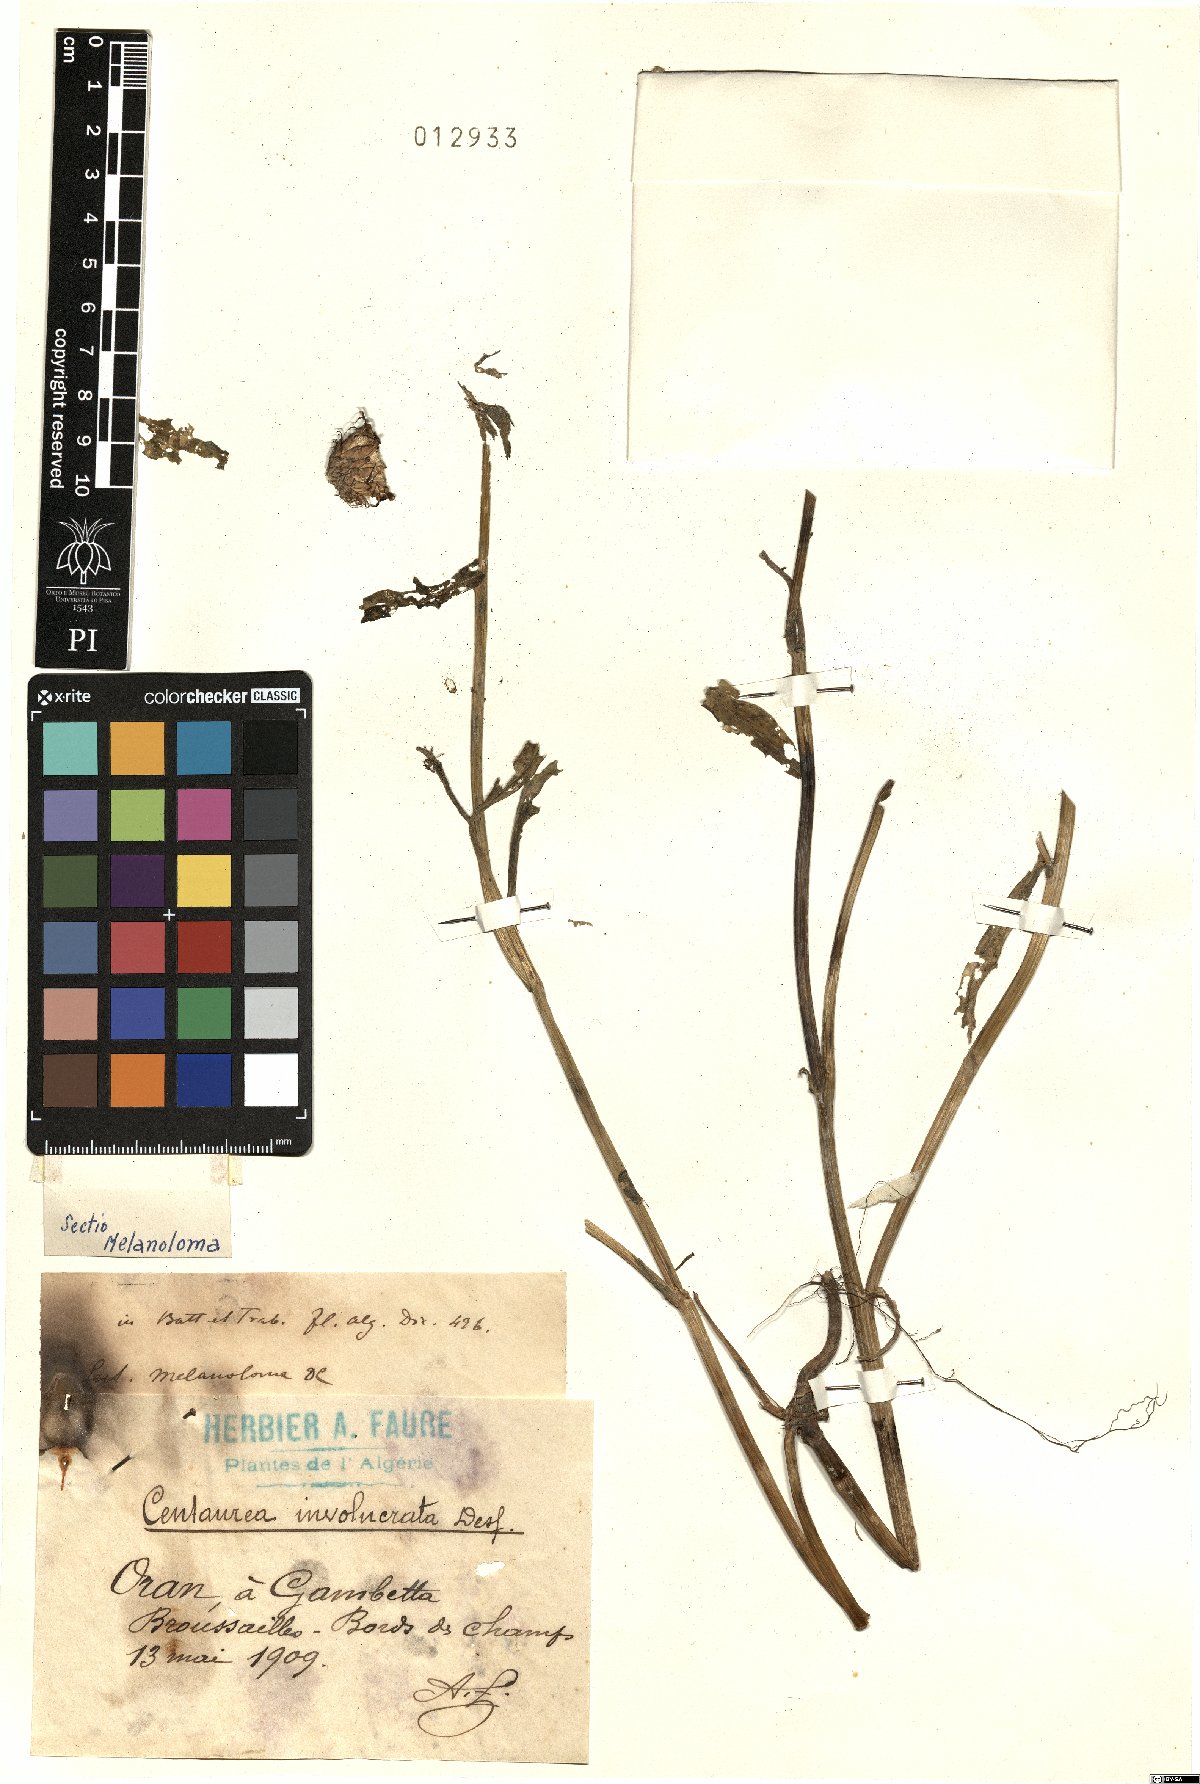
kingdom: Plantae
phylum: Tracheophyta
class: Magnoliopsida
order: Asterales
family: Asteraceae
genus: Centaurea
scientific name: Centaurea involucrata
